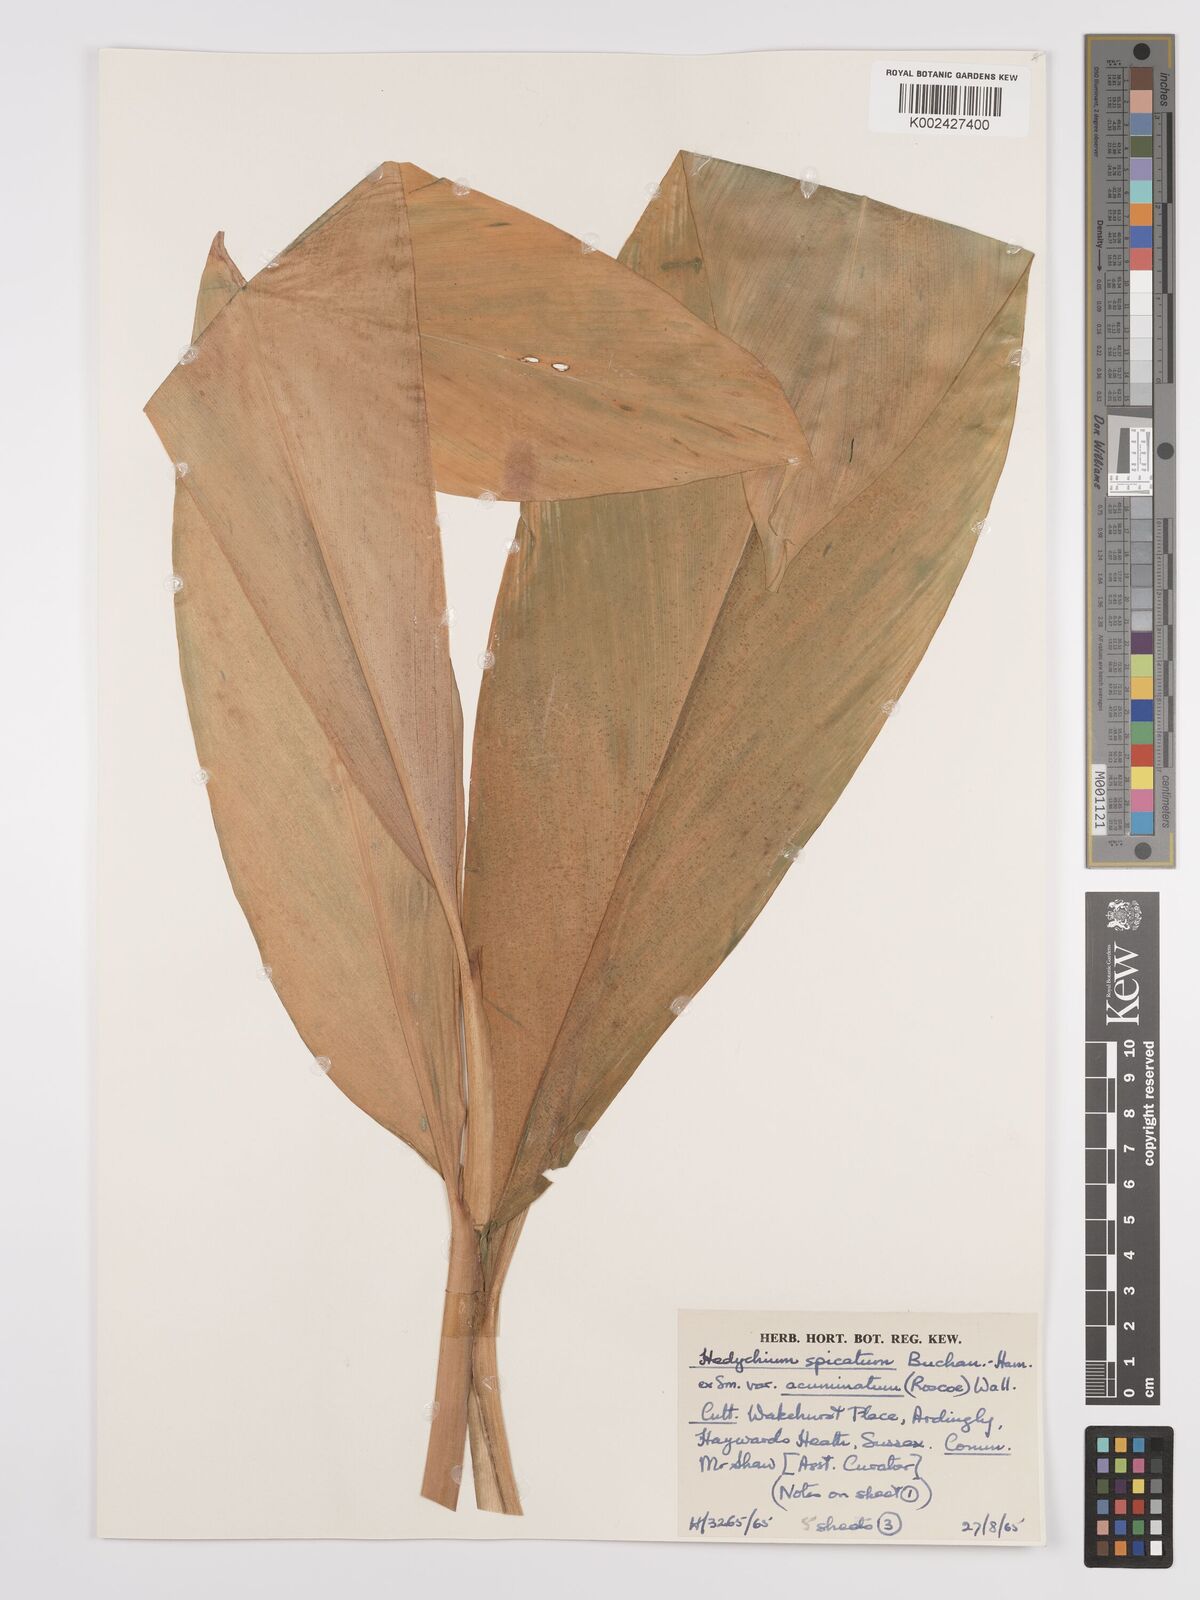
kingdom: Plantae
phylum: Tracheophyta
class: Liliopsida
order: Zingiberales
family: Zingiberaceae
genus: Hedychium
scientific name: Hedychium
